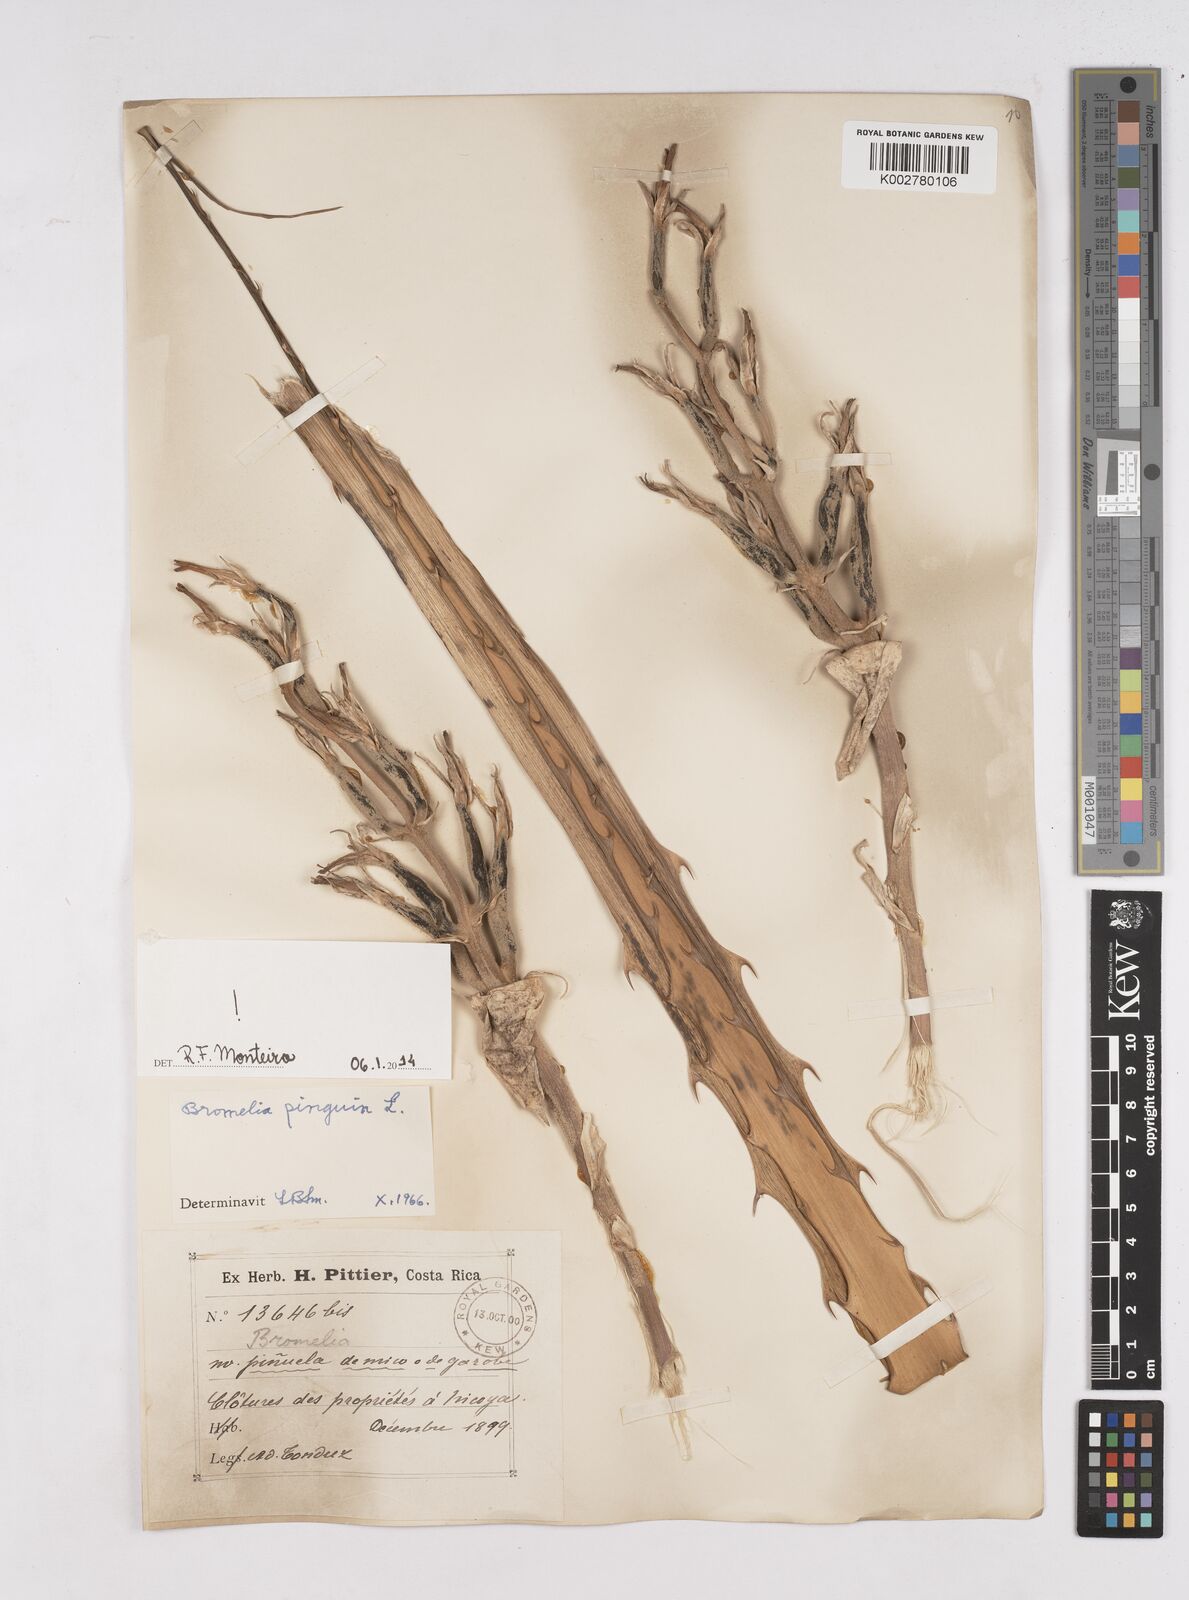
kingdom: Plantae
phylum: Tracheophyta
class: Liliopsida
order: Poales
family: Bromeliaceae
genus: Bromelia
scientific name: Bromelia pinguin
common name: Pinguin
